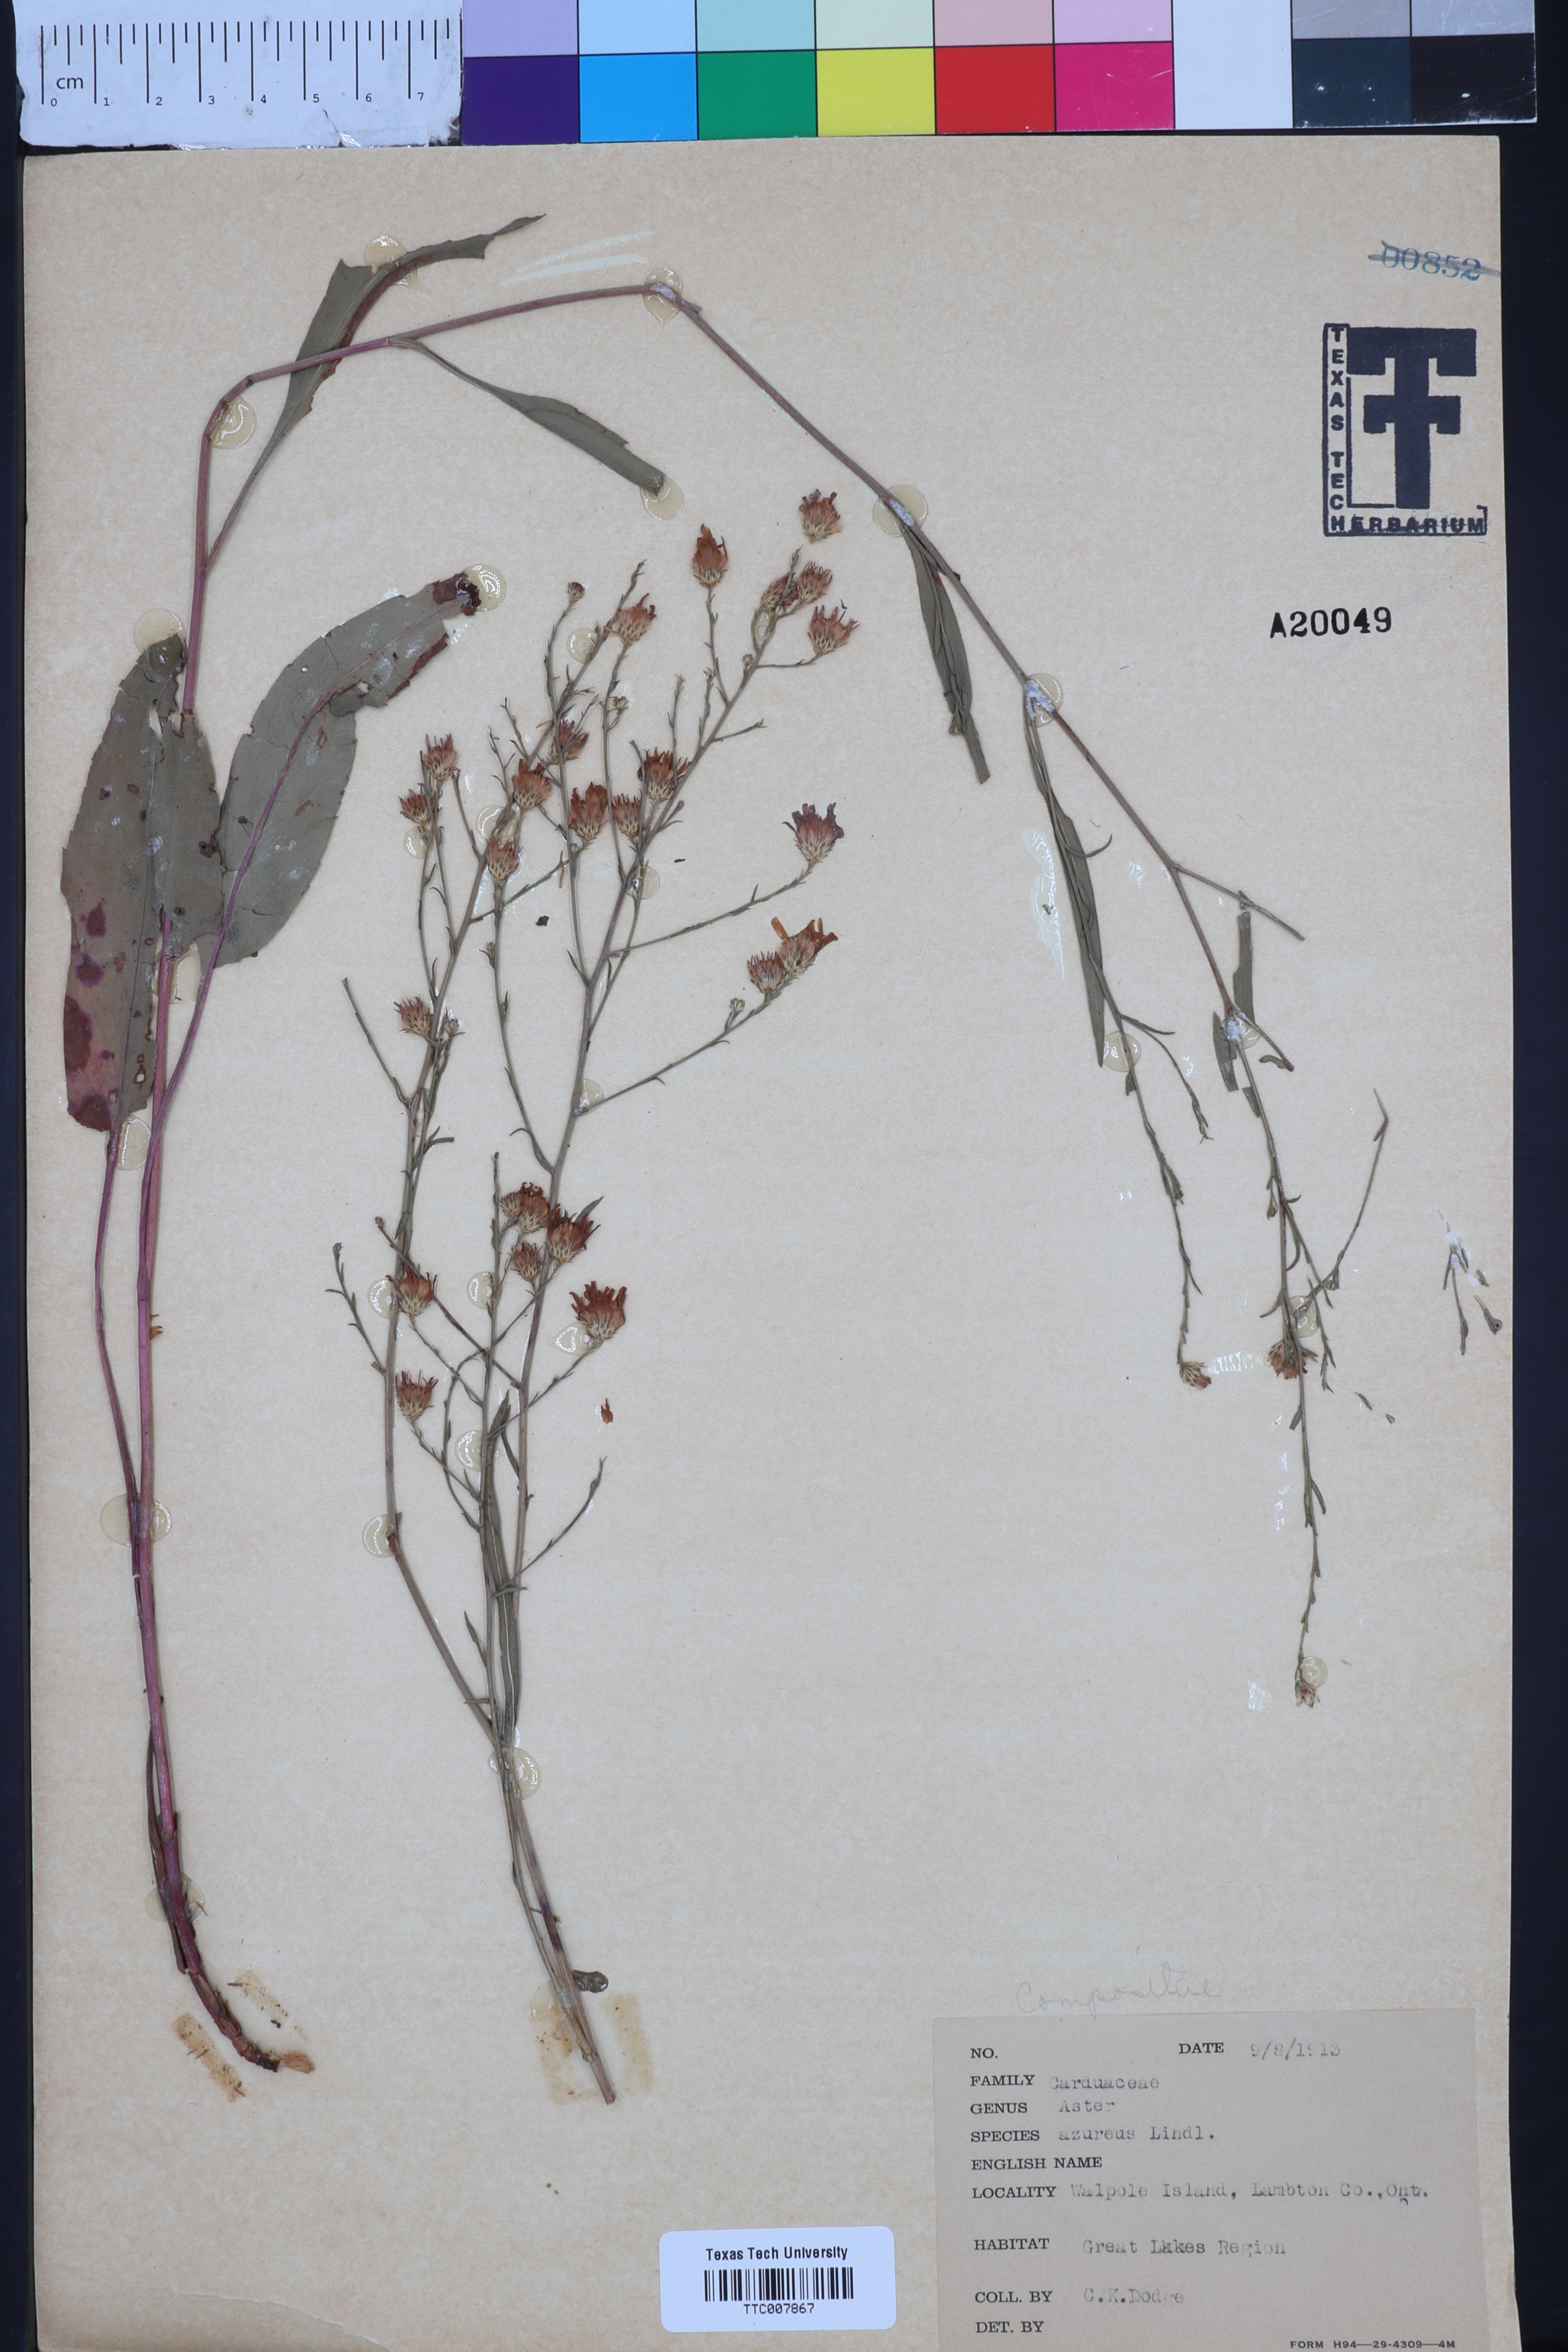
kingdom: Plantae
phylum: Tracheophyta
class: Magnoliopsida
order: Asterales
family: Asteraceae
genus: Symphyotrichum
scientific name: Symphyotrichum shortii
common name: Short's aster
